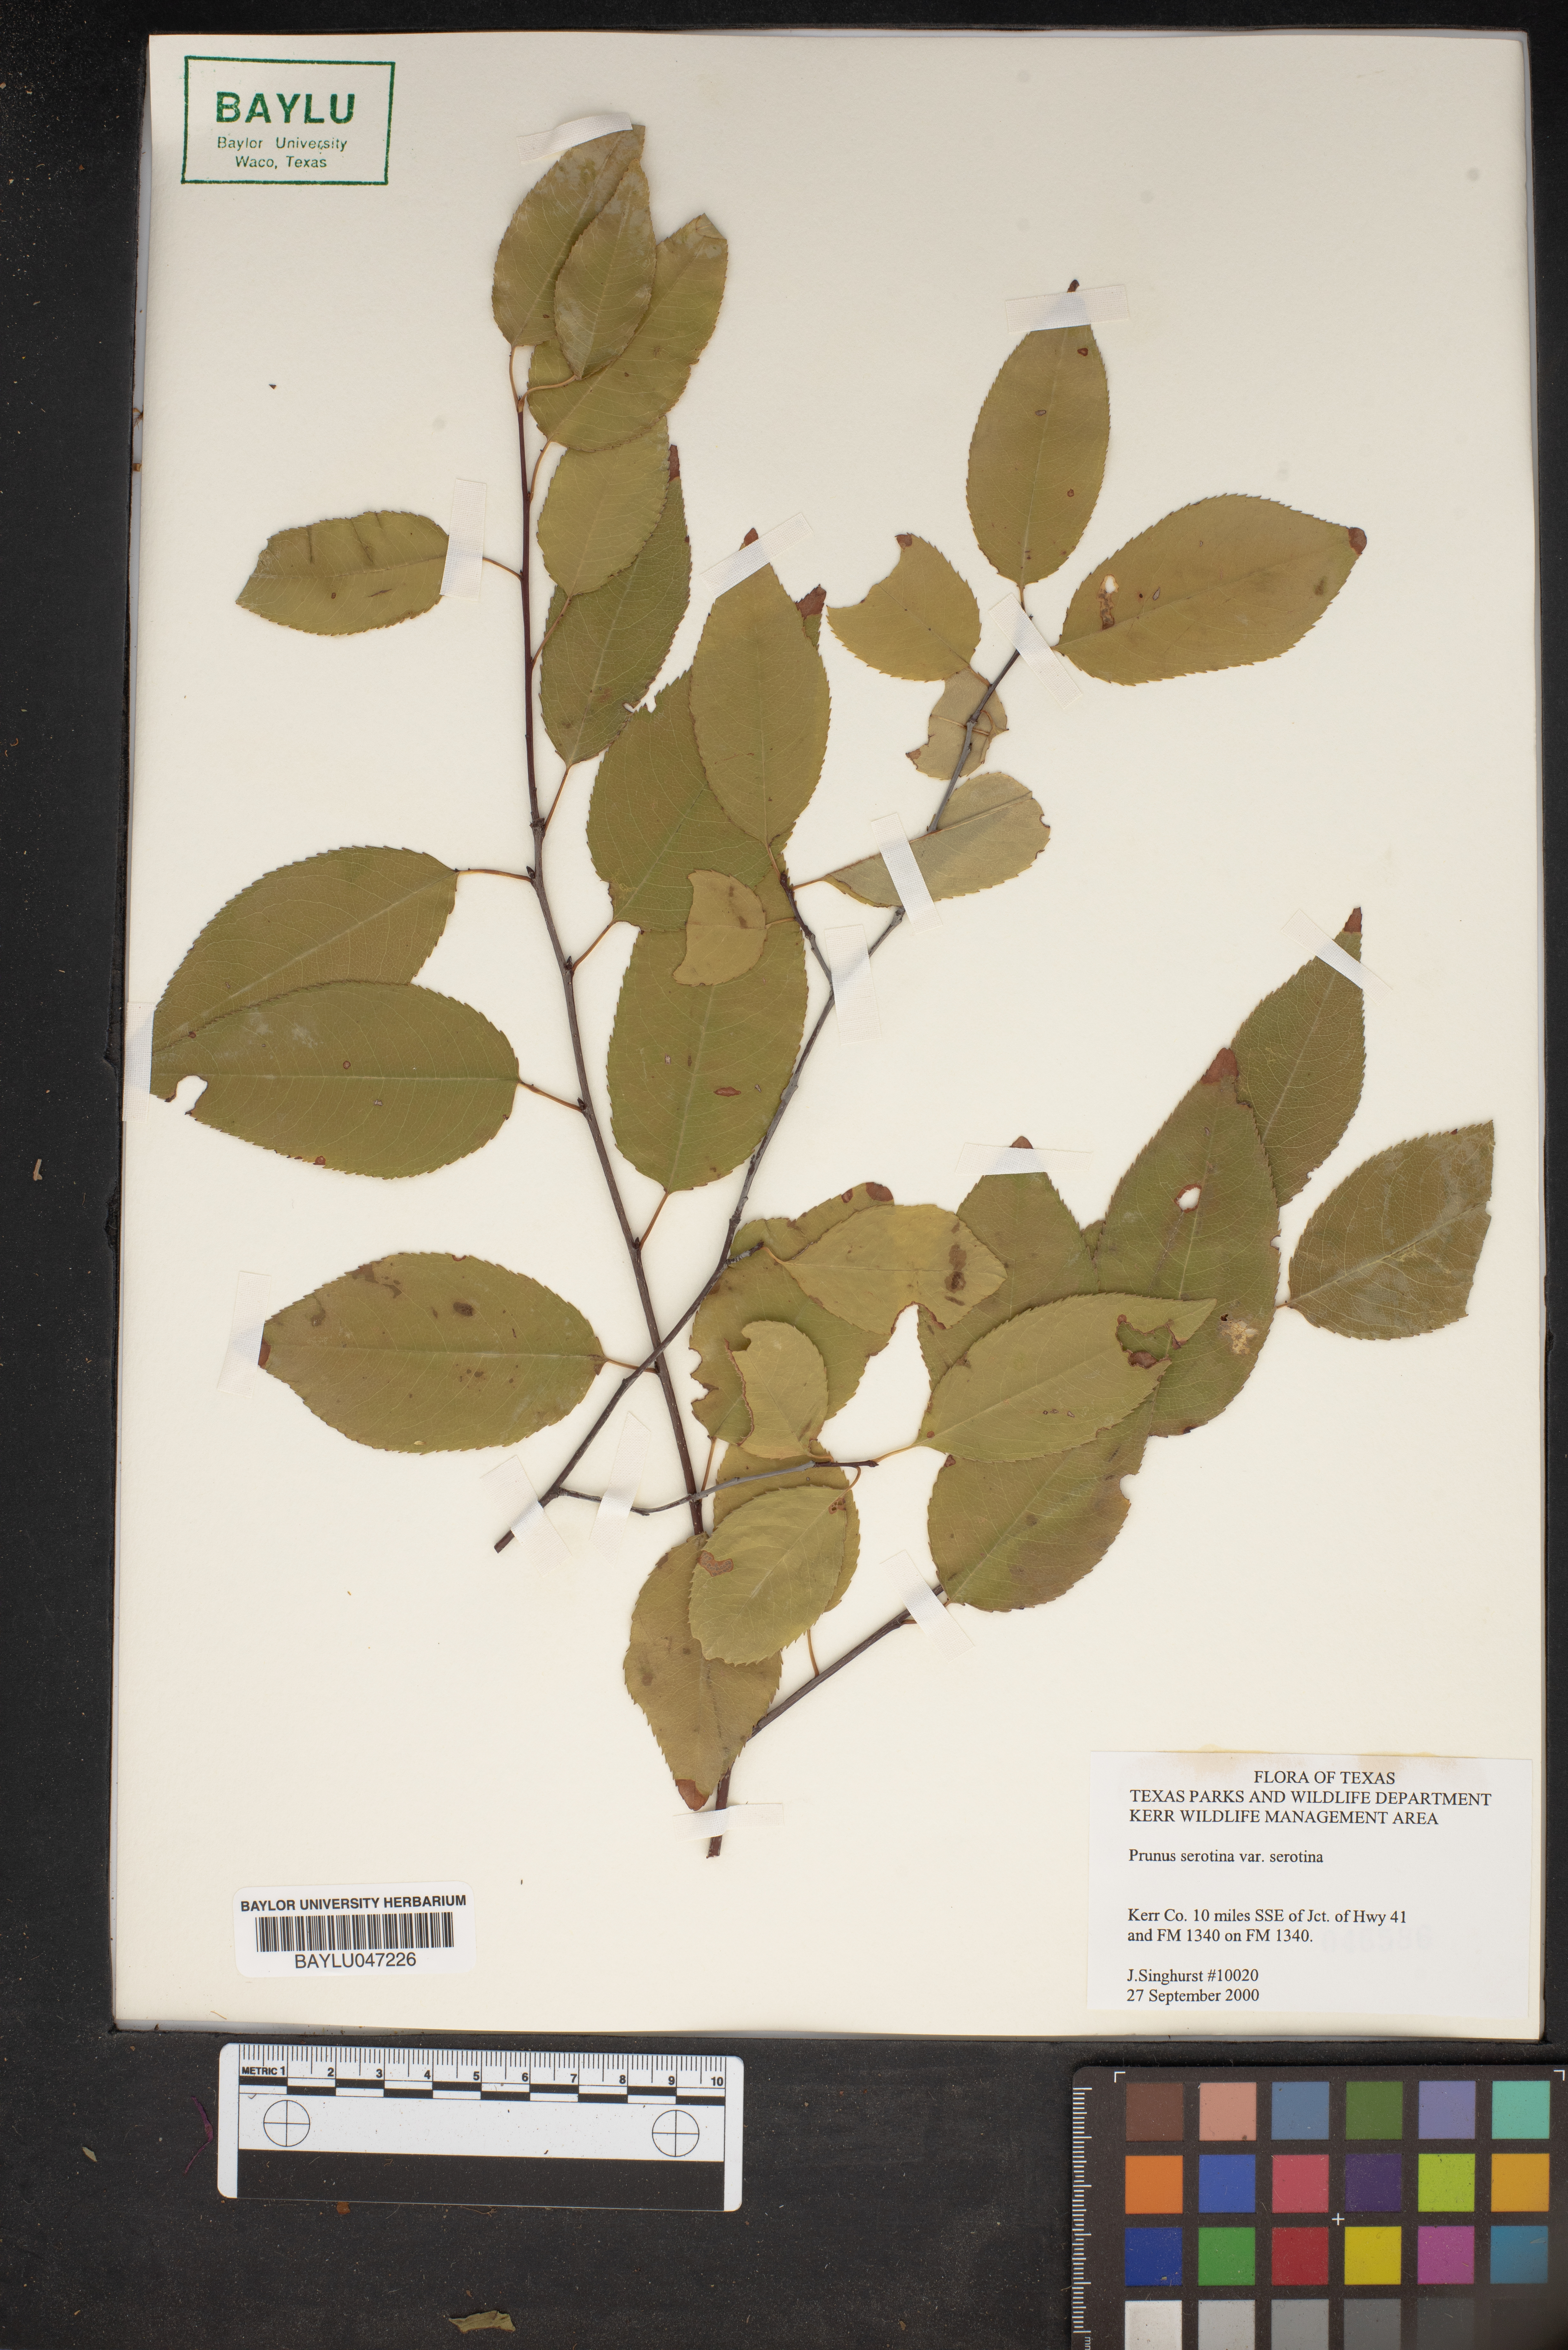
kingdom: Plantae
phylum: Tracheophyta
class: Magnoliopsida
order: Rosales
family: Rosaceae
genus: Prunus
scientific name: Prunus serotina
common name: Black cherry
